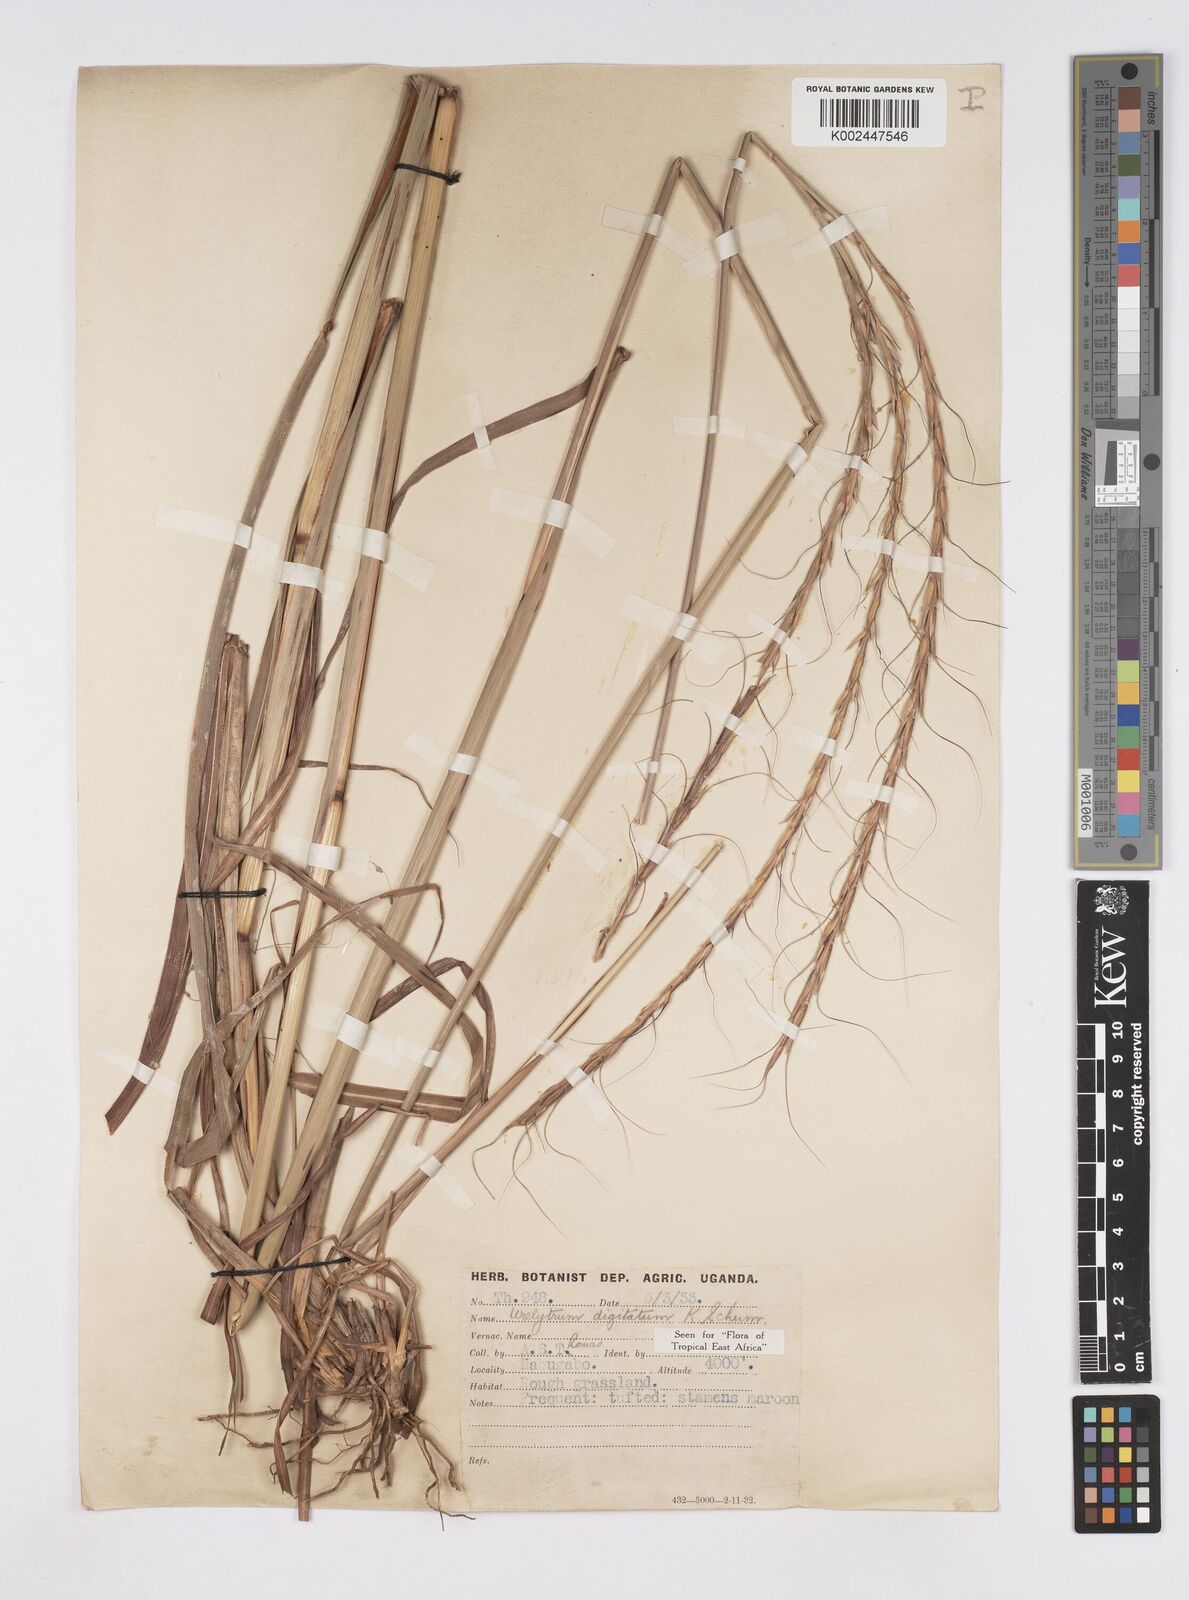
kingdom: Plantae
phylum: Tracheophyta
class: Liliopsida
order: Poales
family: Poaceae
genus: Urelytrum
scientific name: Urelytrum digitatum
